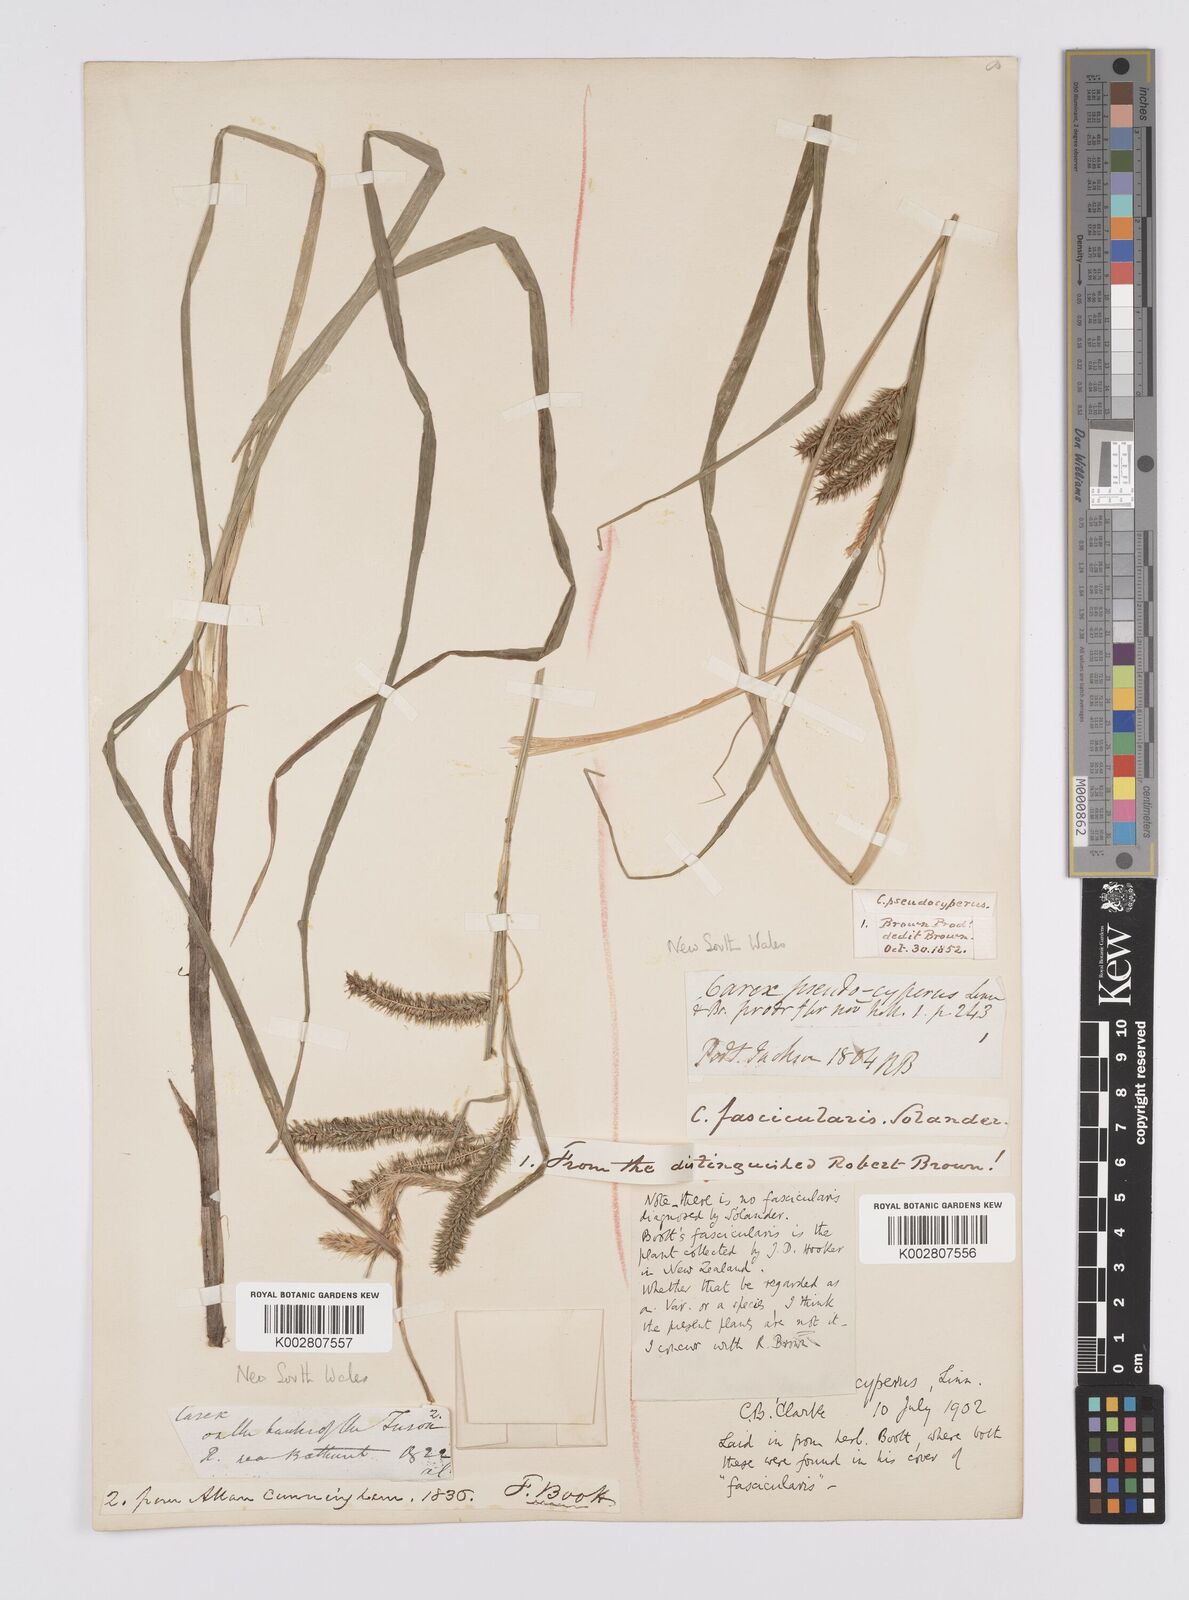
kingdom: Plantae
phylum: Tracheophyta
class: Liliopsida
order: Poales
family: Cyperaceae
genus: Carex
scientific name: Carex fascicularis
